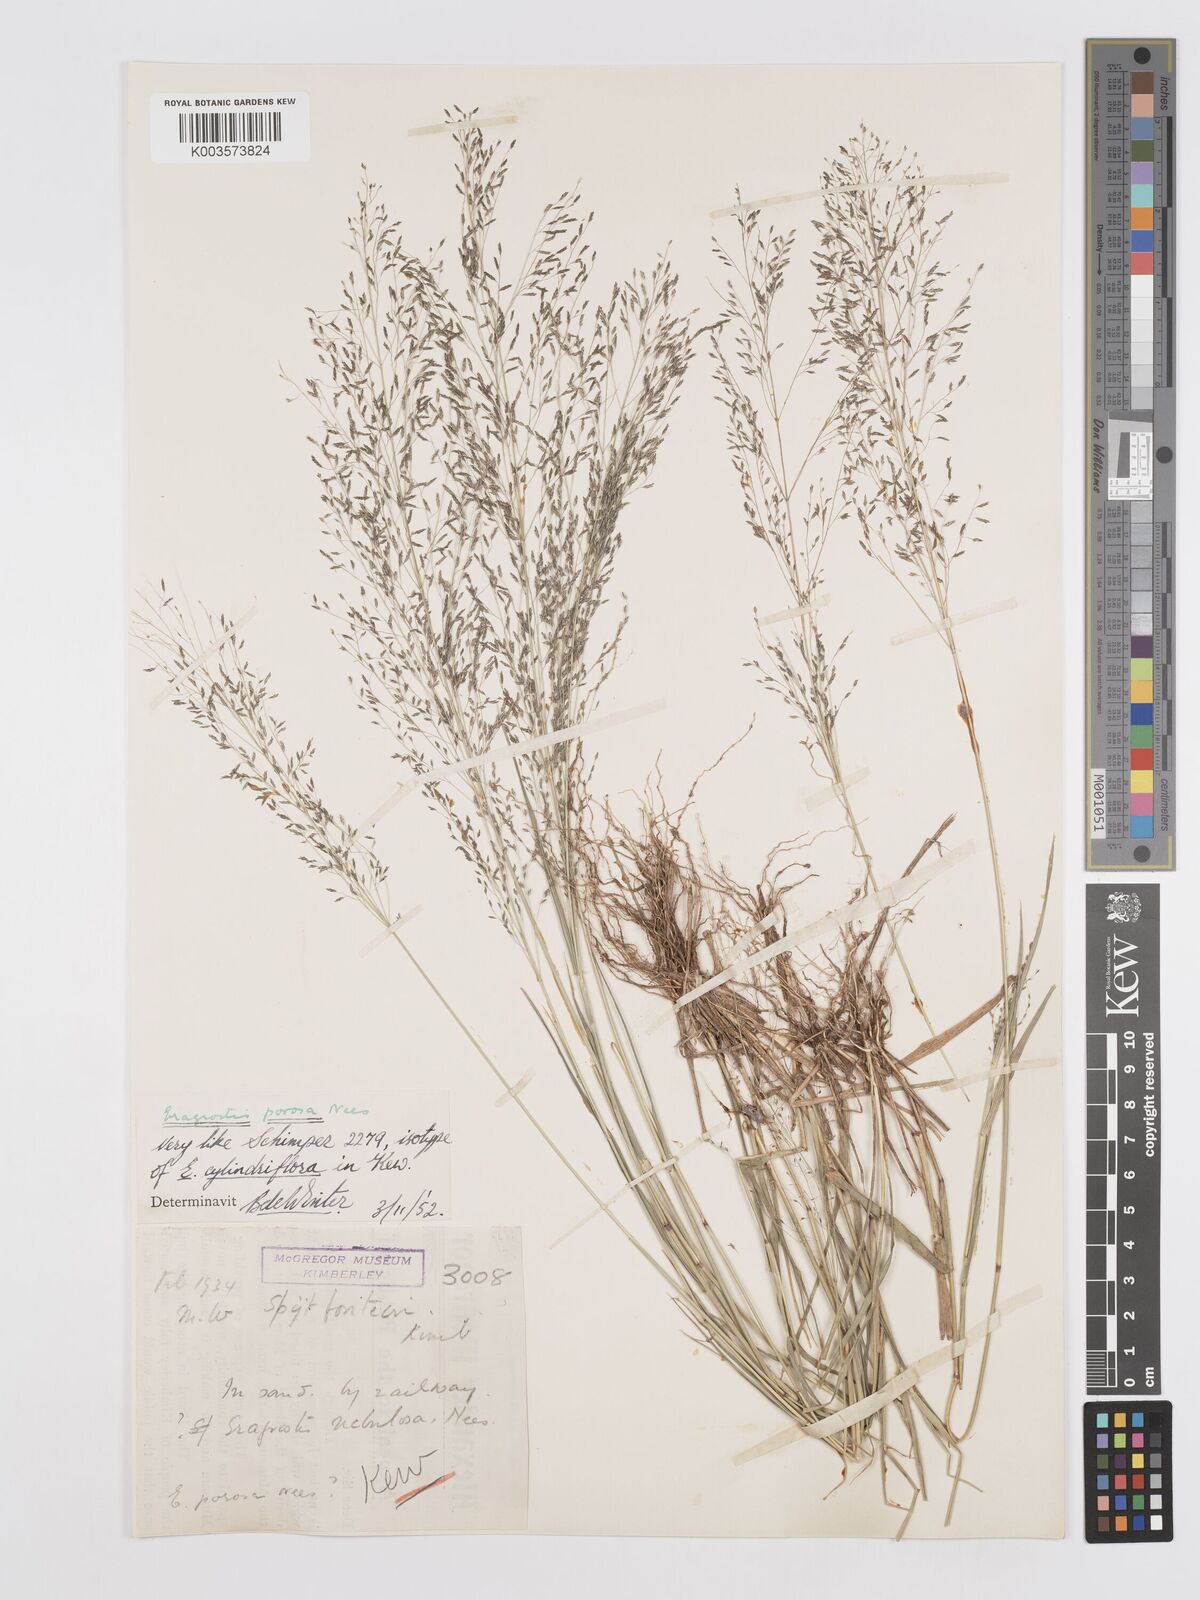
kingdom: Plantae
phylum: Tracheophyta
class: Liliopsida
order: Poales
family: Poaceae
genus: Eragrostis
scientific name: Eragrostis porosa
